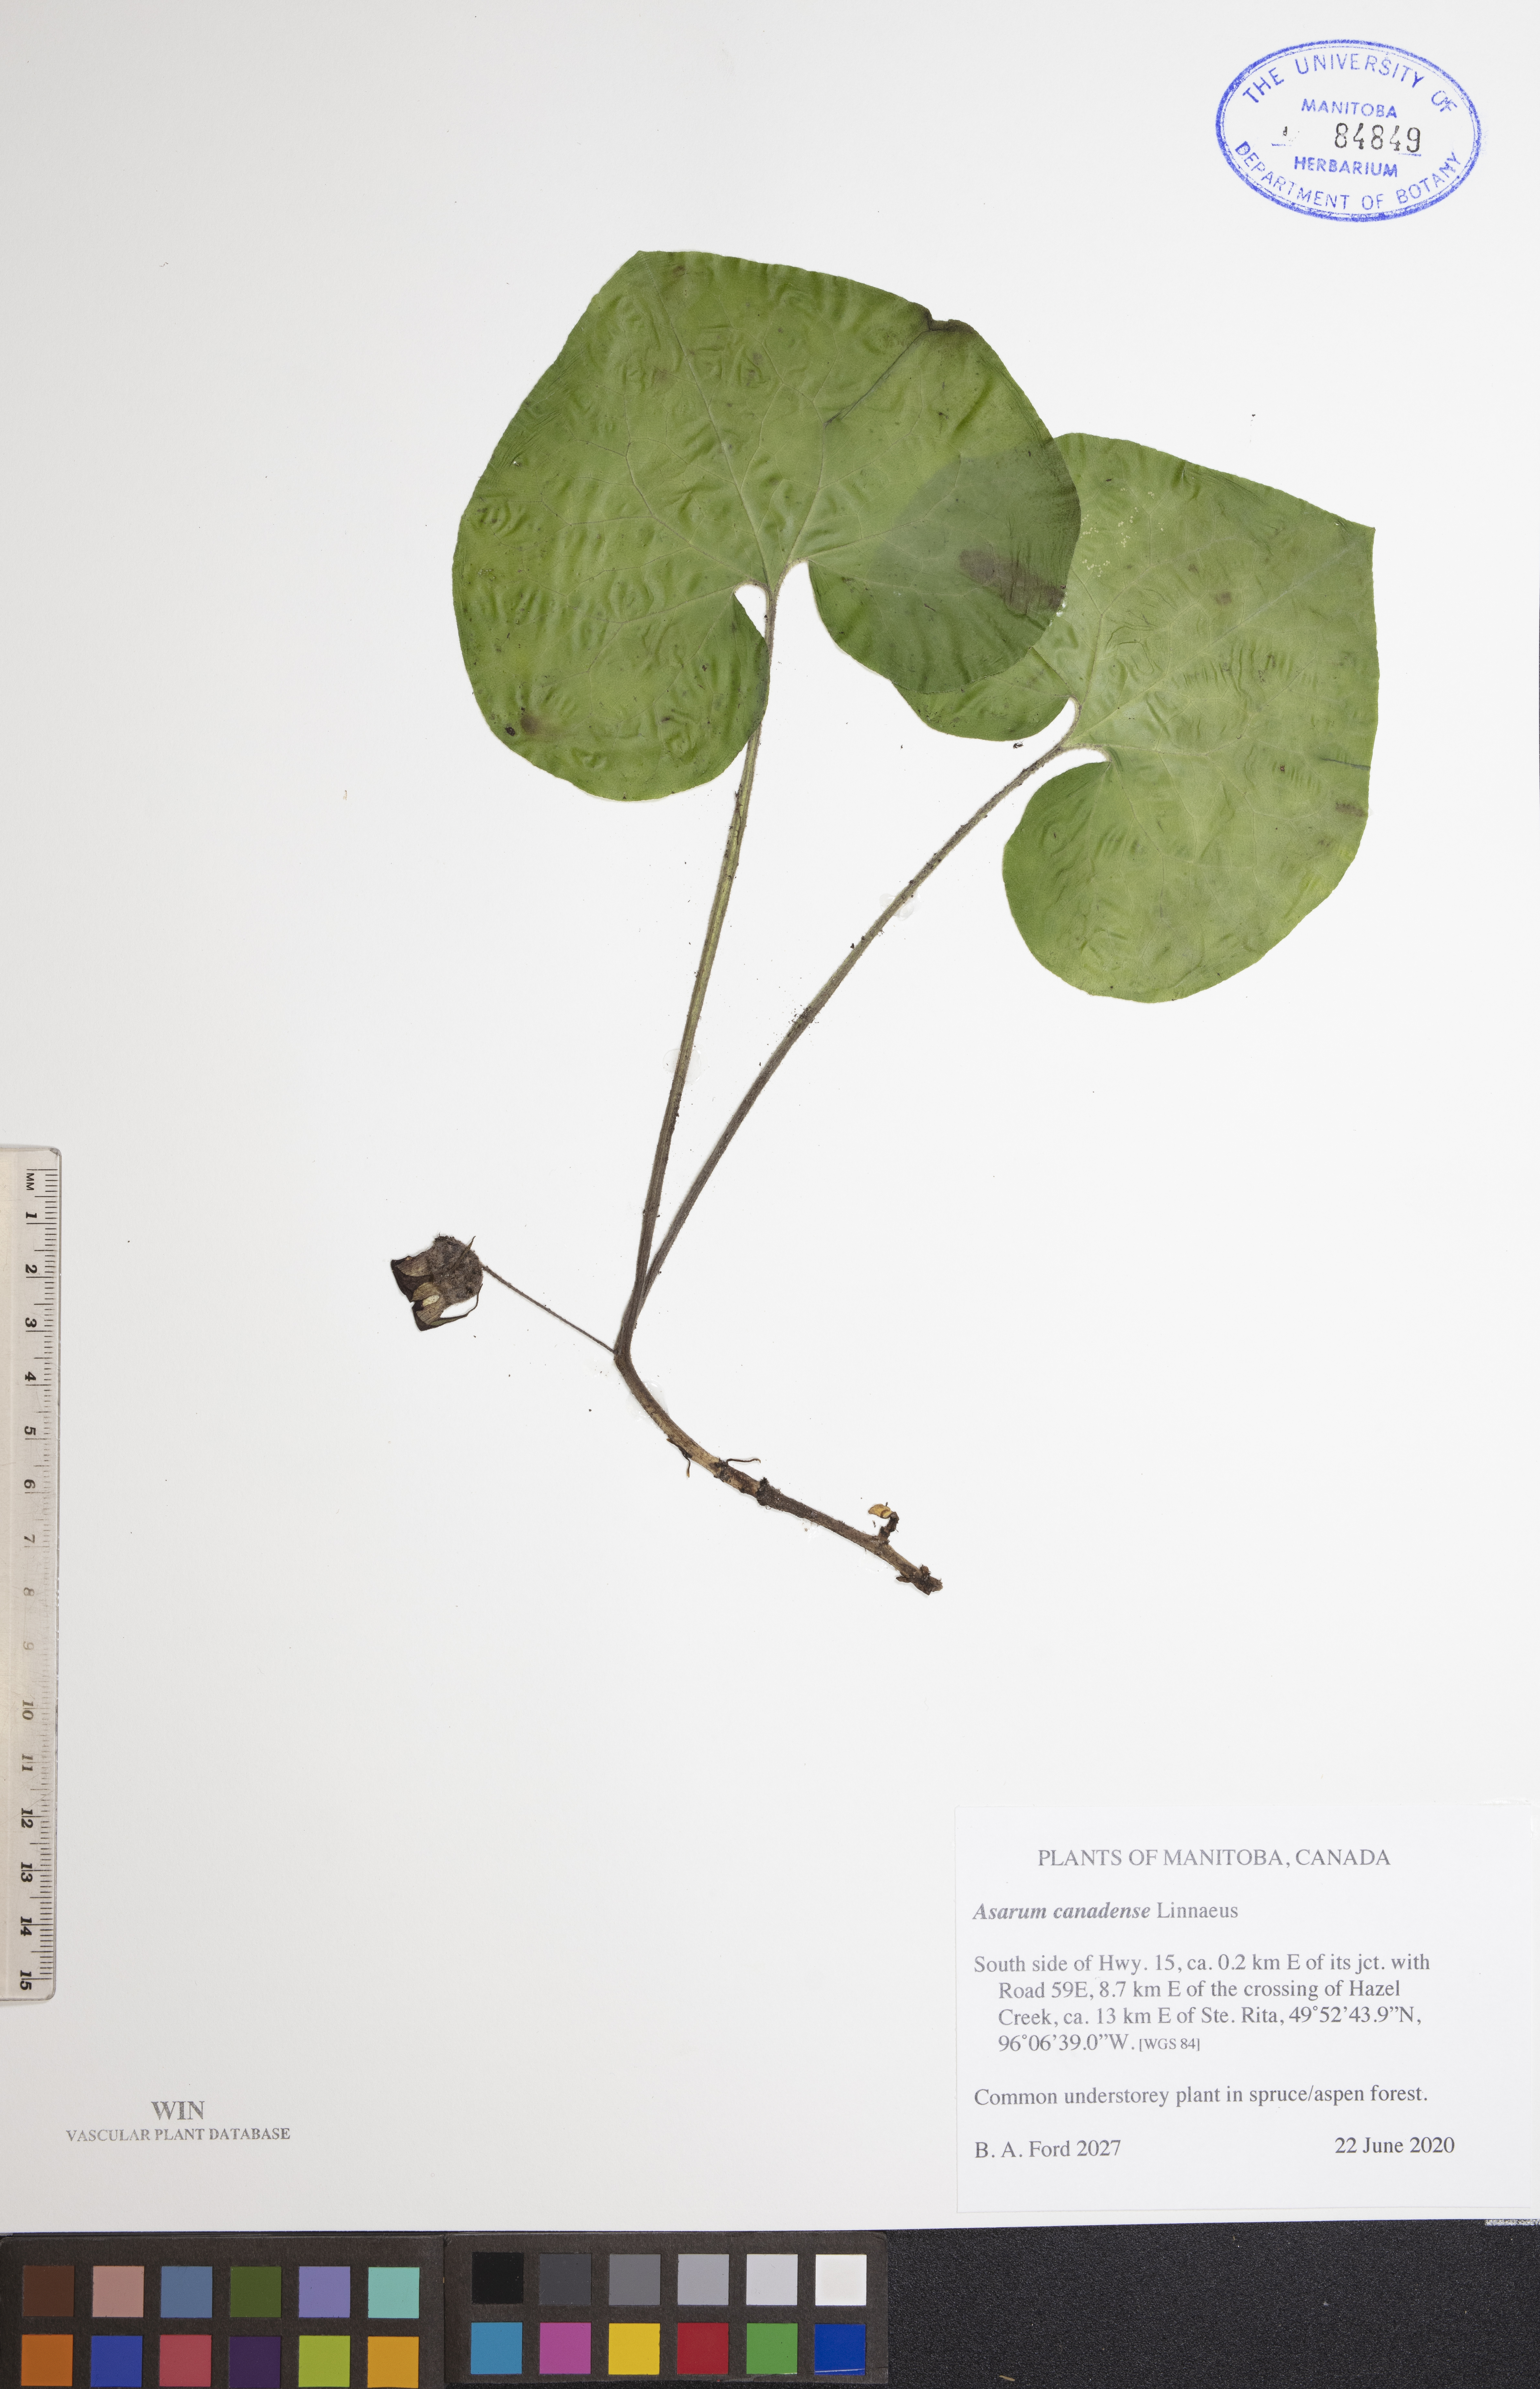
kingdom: Plantae
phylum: Tracheophyta
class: Magnoliopsida
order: Piperales
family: Aristolochiaceae
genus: Asarum
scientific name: Asarum canadense
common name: Wild ginger
